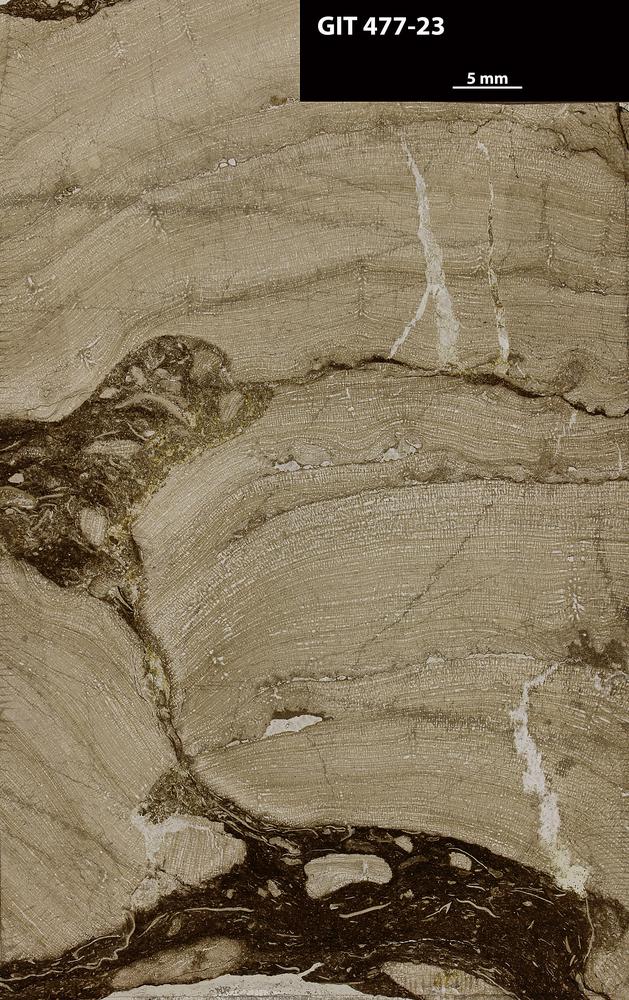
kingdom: Animalia
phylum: Porifera
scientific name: Porifera
